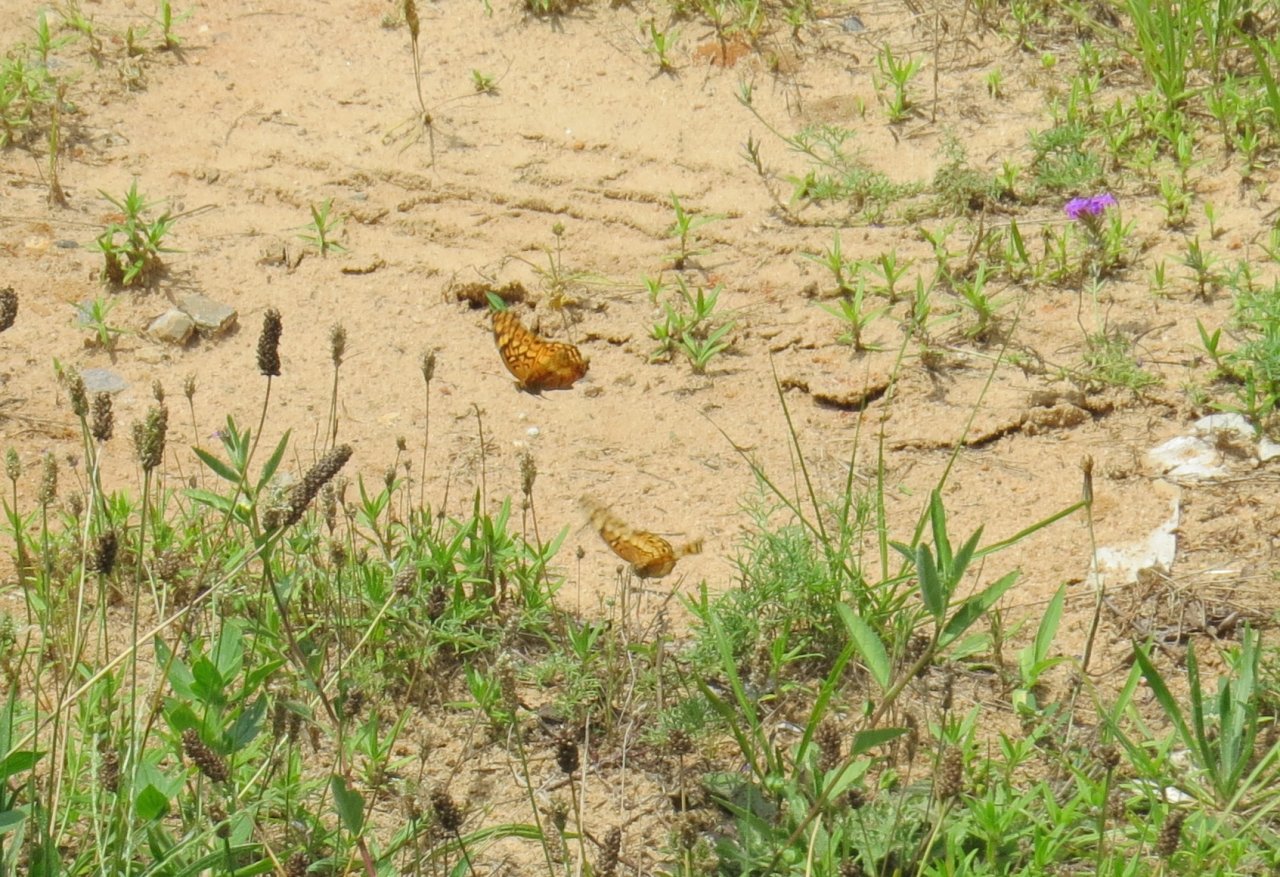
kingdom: Animalia
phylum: Arthropoda
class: Insecta
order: Lepidoptera
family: Nymphalidae
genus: Euptoieta
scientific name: Euptoieta claudia
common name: Variegated Fritillary
